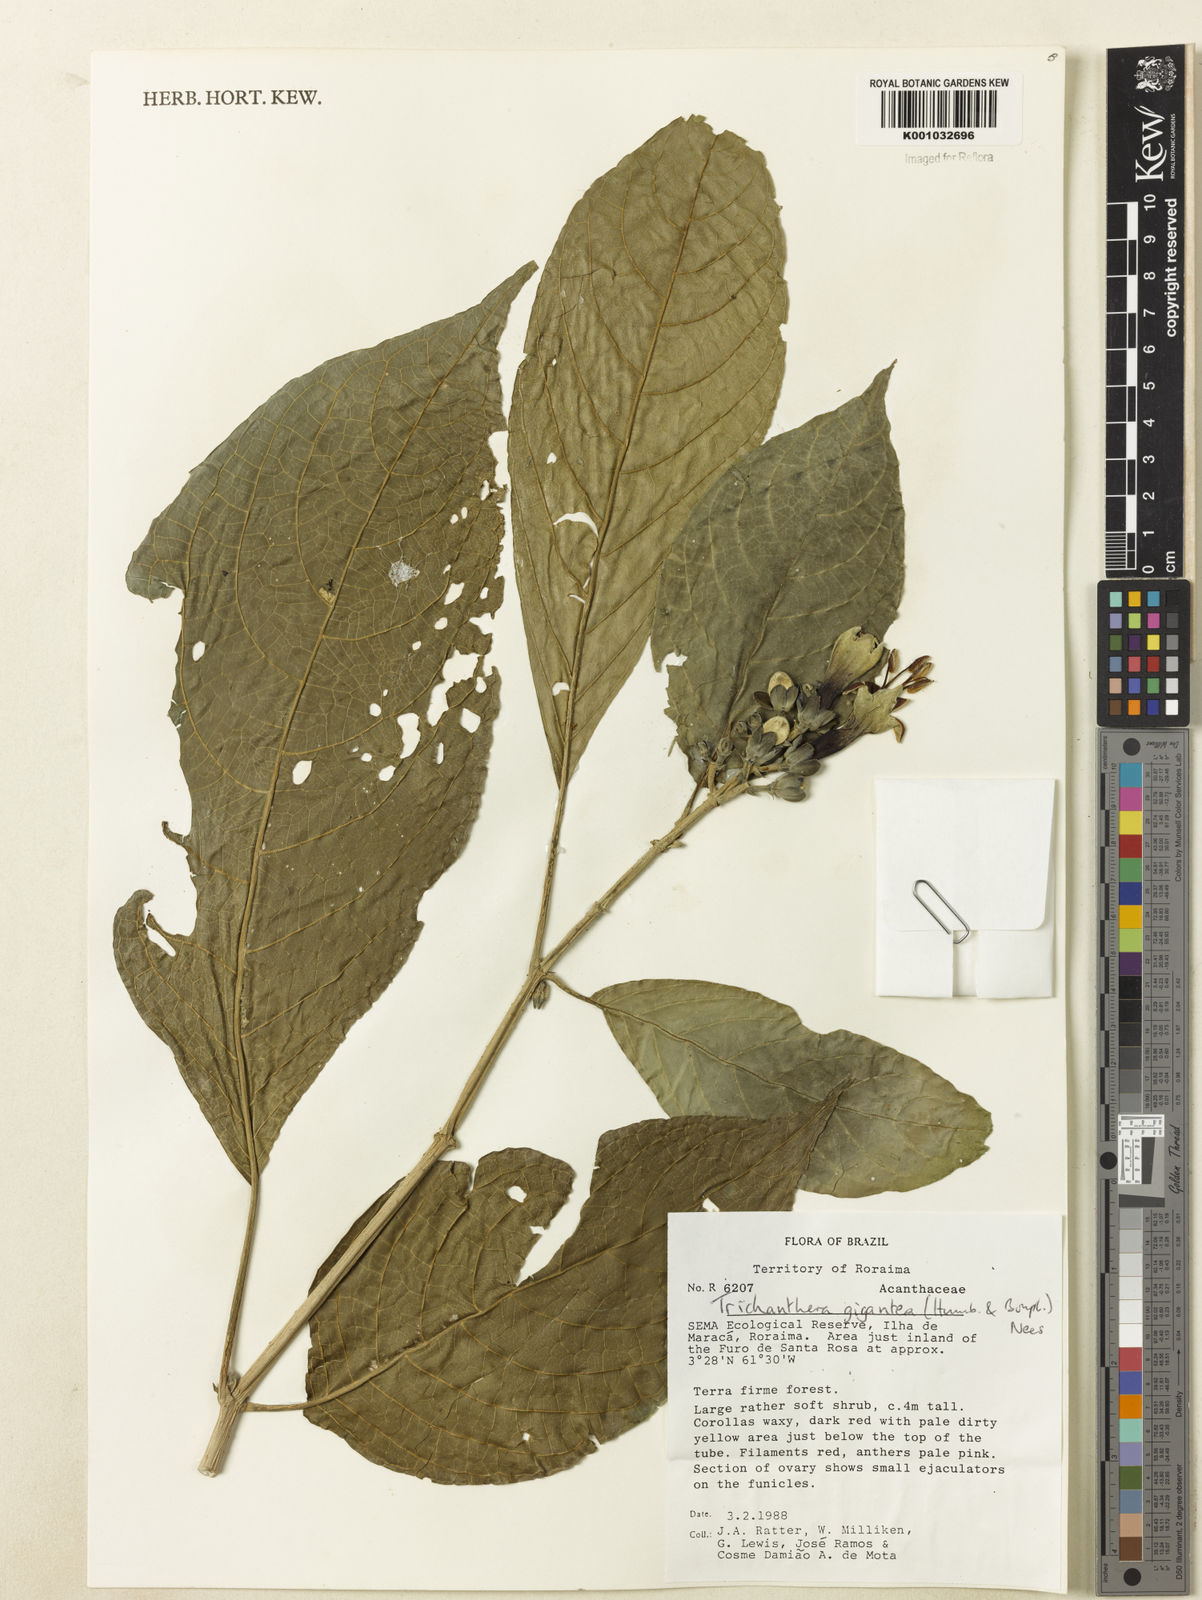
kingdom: Plantae
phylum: Tracheophyta
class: Magnoliopsida
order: Lamiales
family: Acanthaceae
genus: Trichanthera
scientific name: Trichanthera
